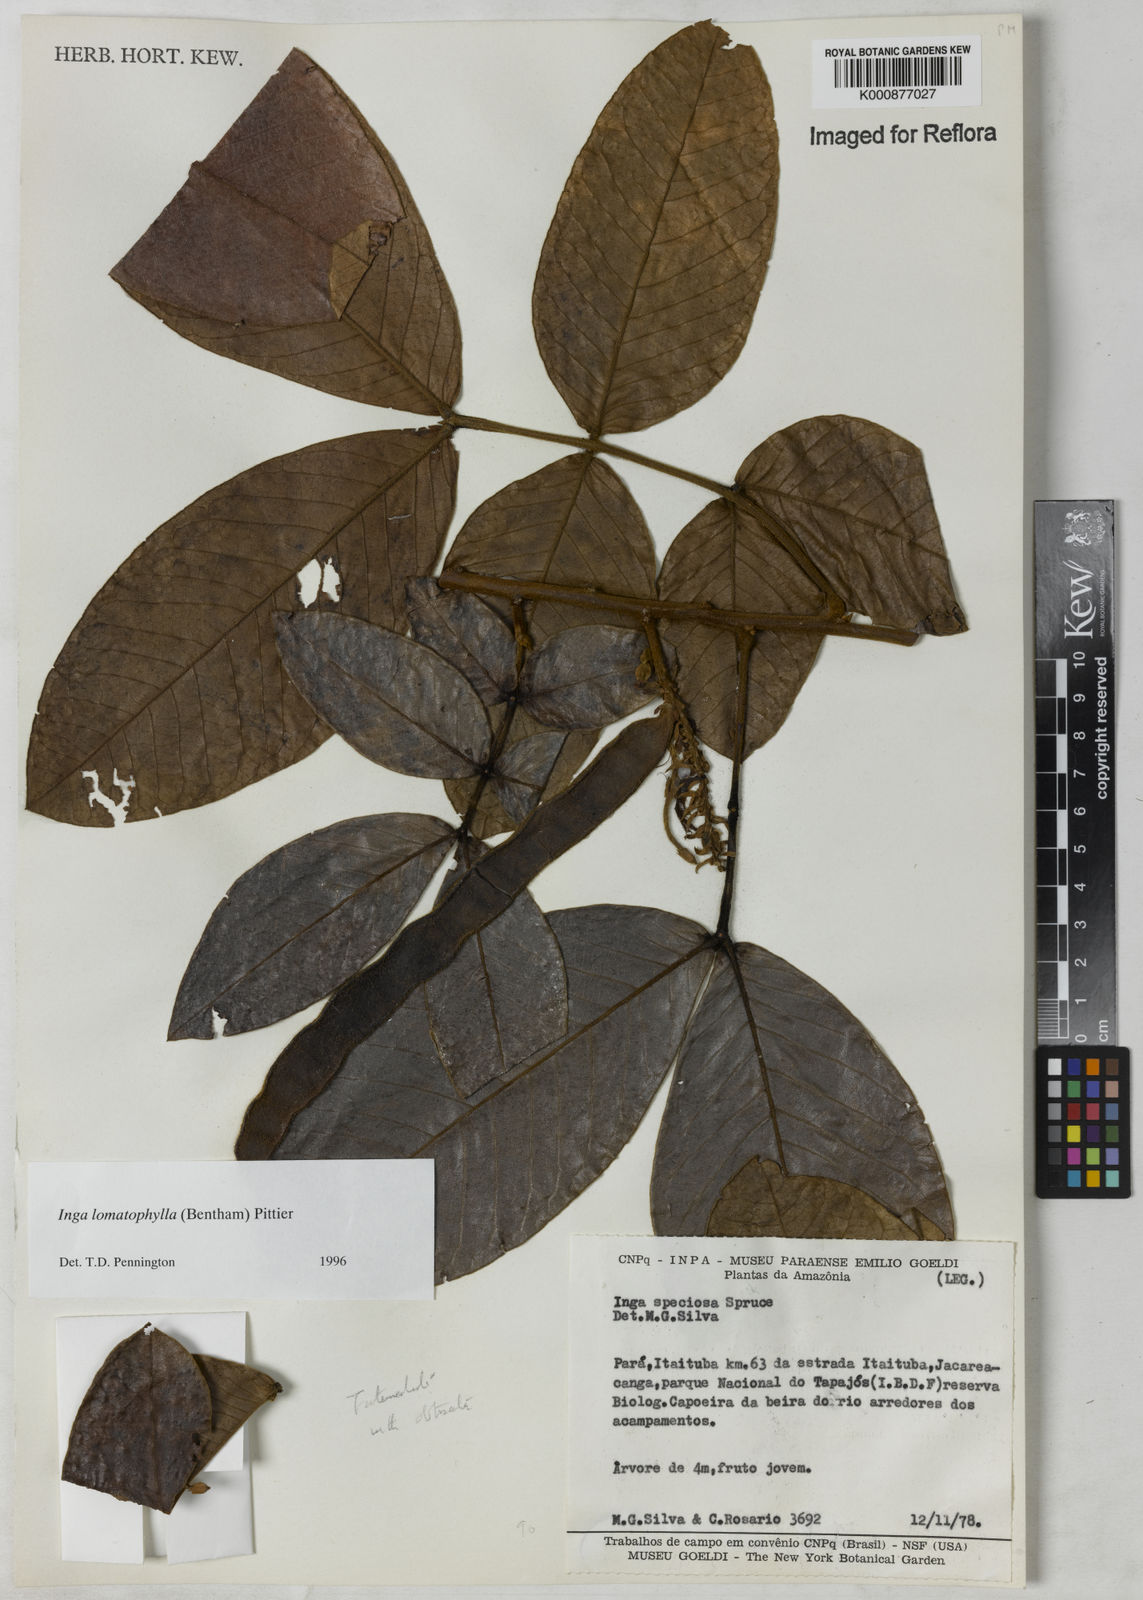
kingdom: Plantae
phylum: Tracheophyta
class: Magnoliopsida
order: Fabales
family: Fabaceae
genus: Inga
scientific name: Inga lomatophylla
